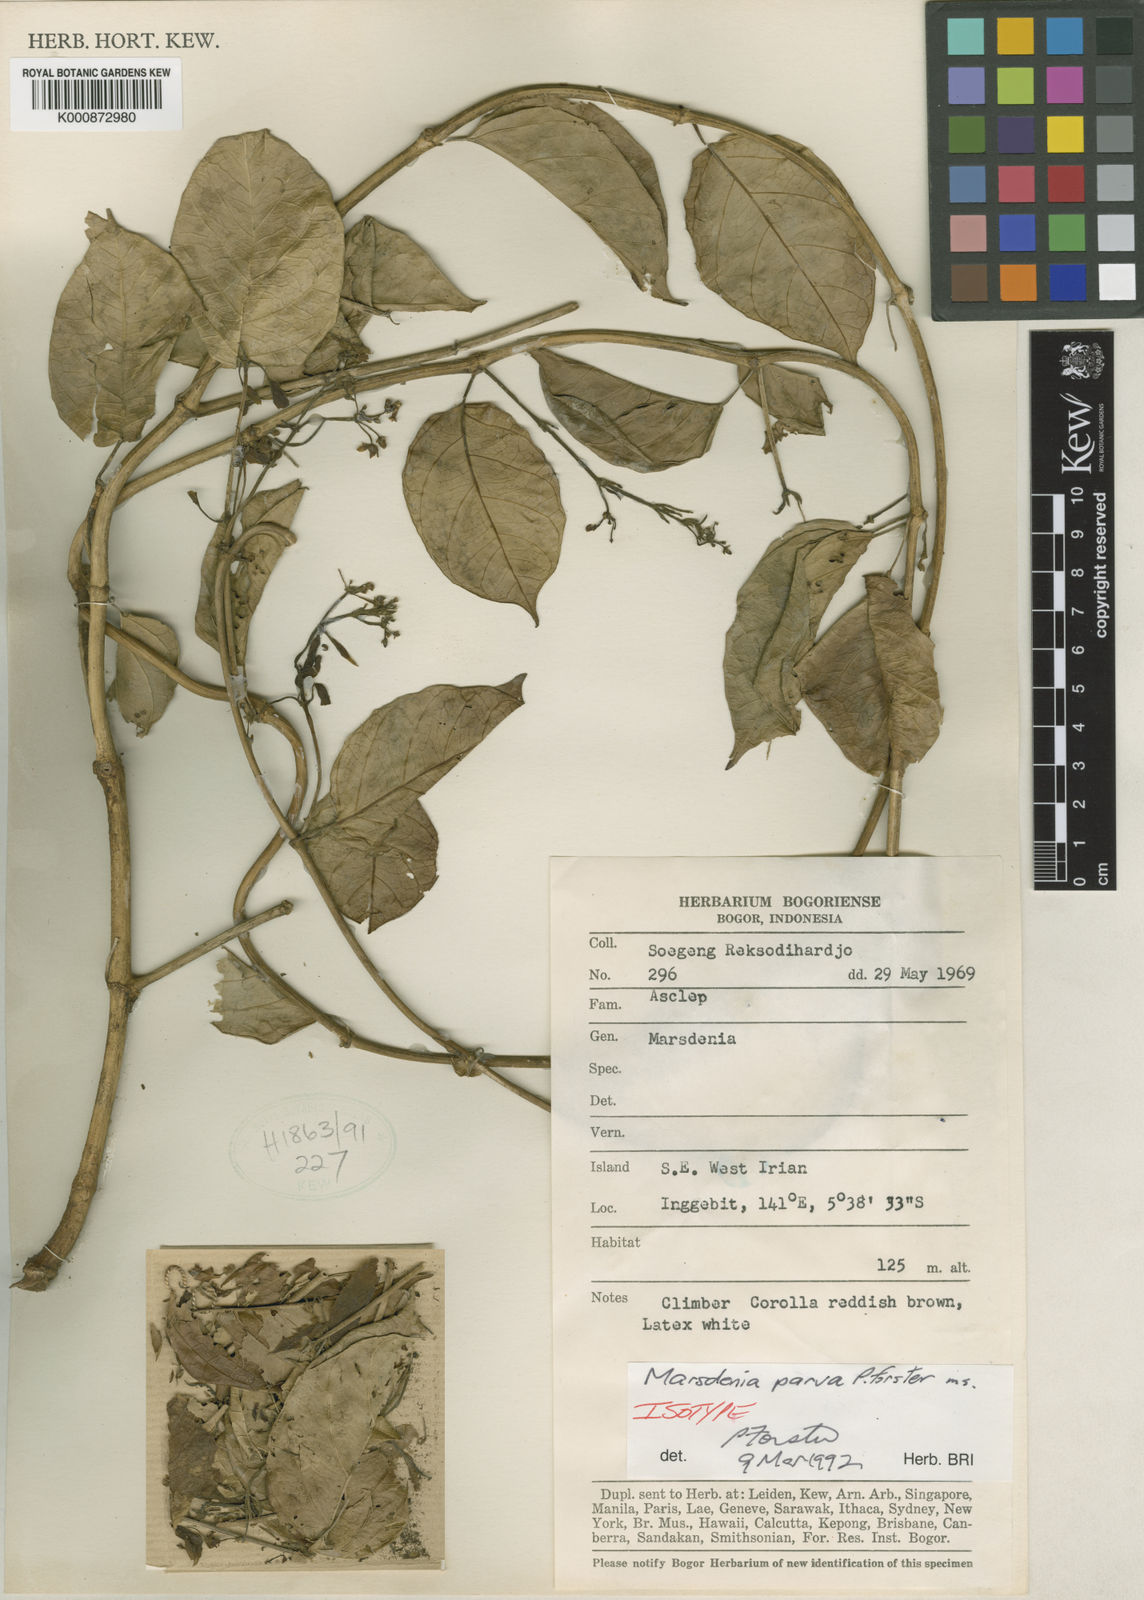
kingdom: Plantae
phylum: Tracheophyta
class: Magnoliopsida
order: Gentianales
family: Apocynaceae
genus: Leichhardtia
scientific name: Leichhardtia parva
